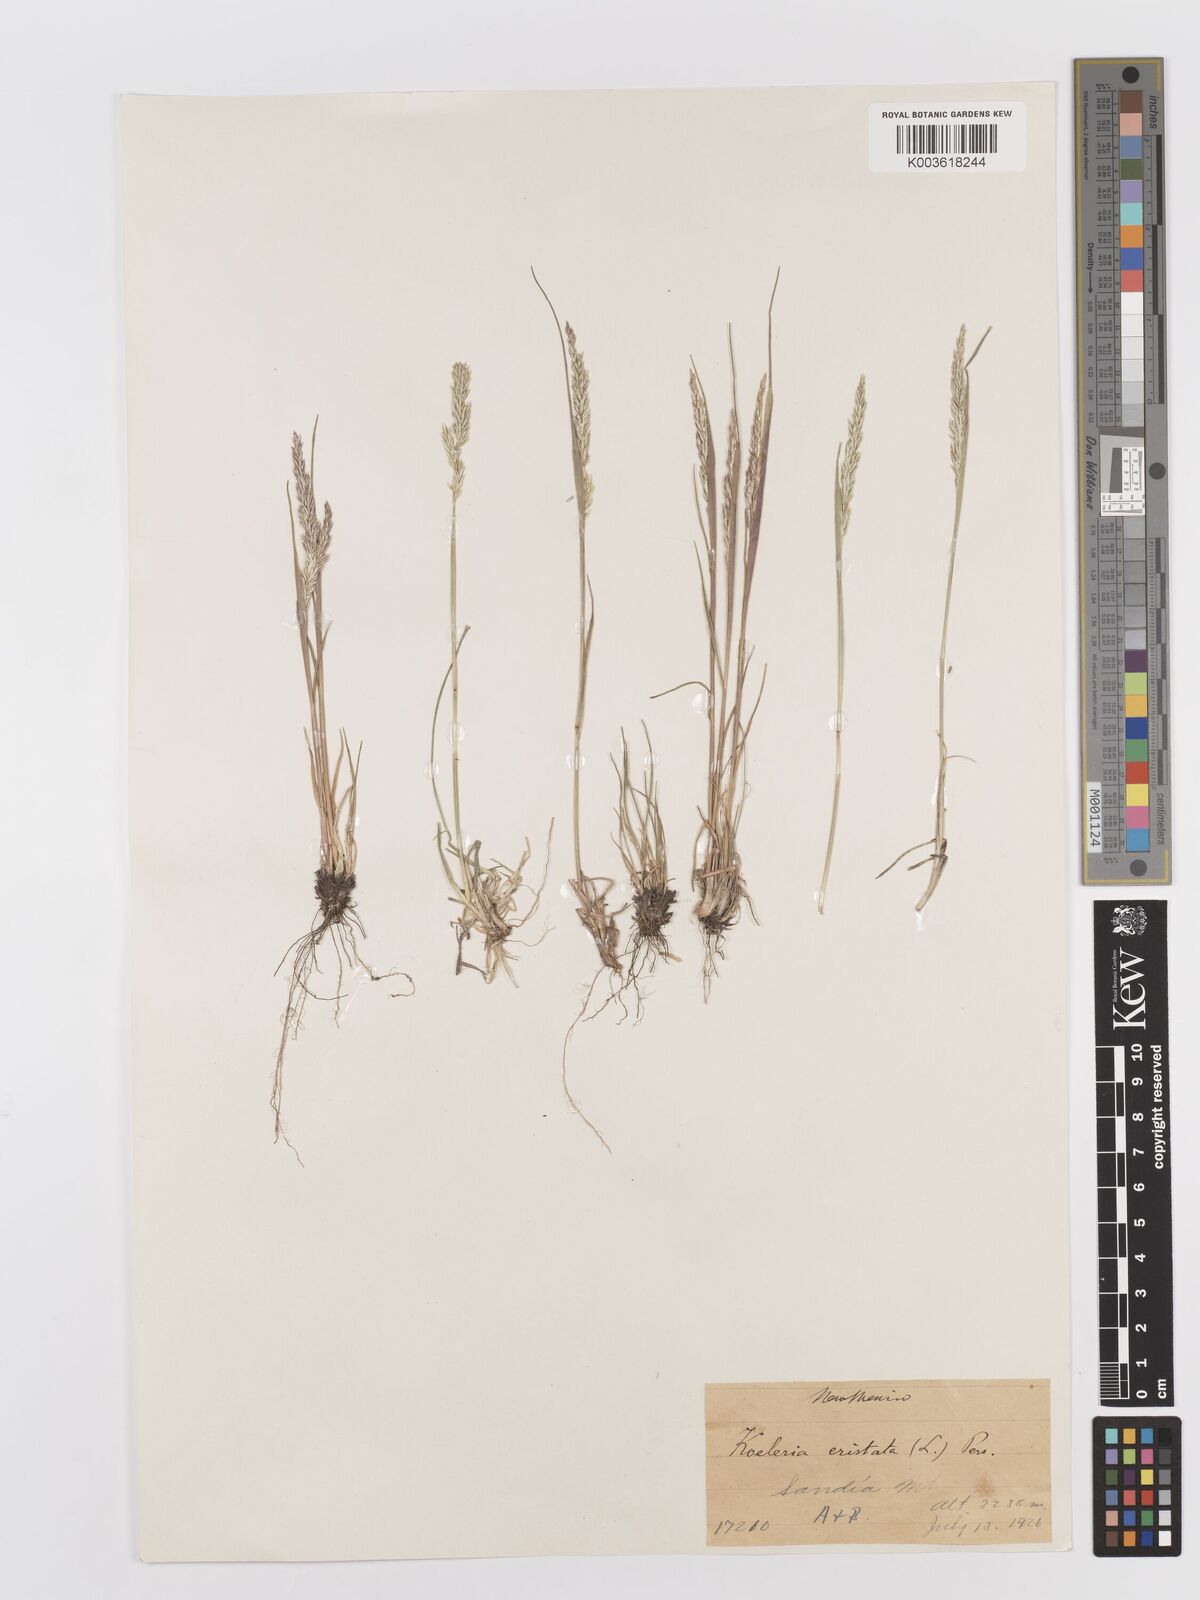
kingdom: Plantae
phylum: Tracheophyta
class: Liliopsida
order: Poales
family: Poaceae
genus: Koeleria
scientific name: Koeleria macrantha
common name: Crested hair-grass
